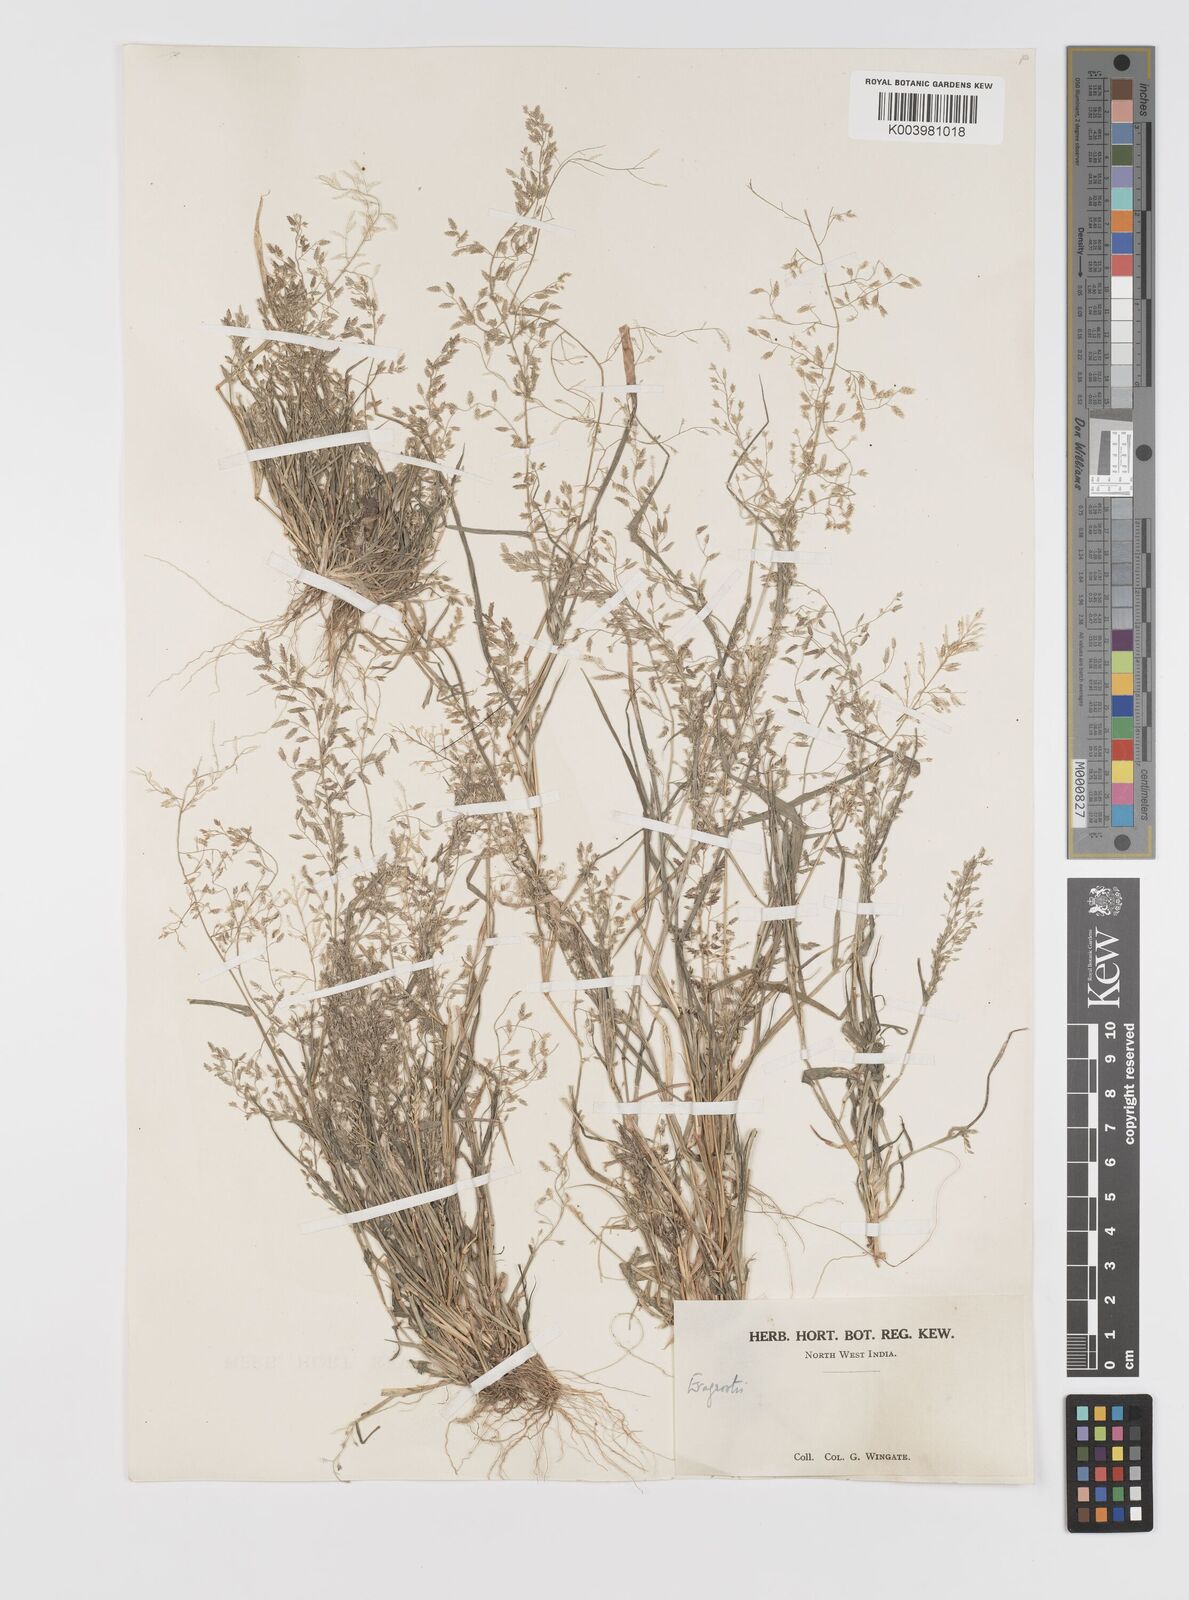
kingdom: Plantae
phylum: Tracheophyta
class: Liliopsida
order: Poales
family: Poaceae
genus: Eragrostis
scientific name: Eragrostis minor
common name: Small love-grass
